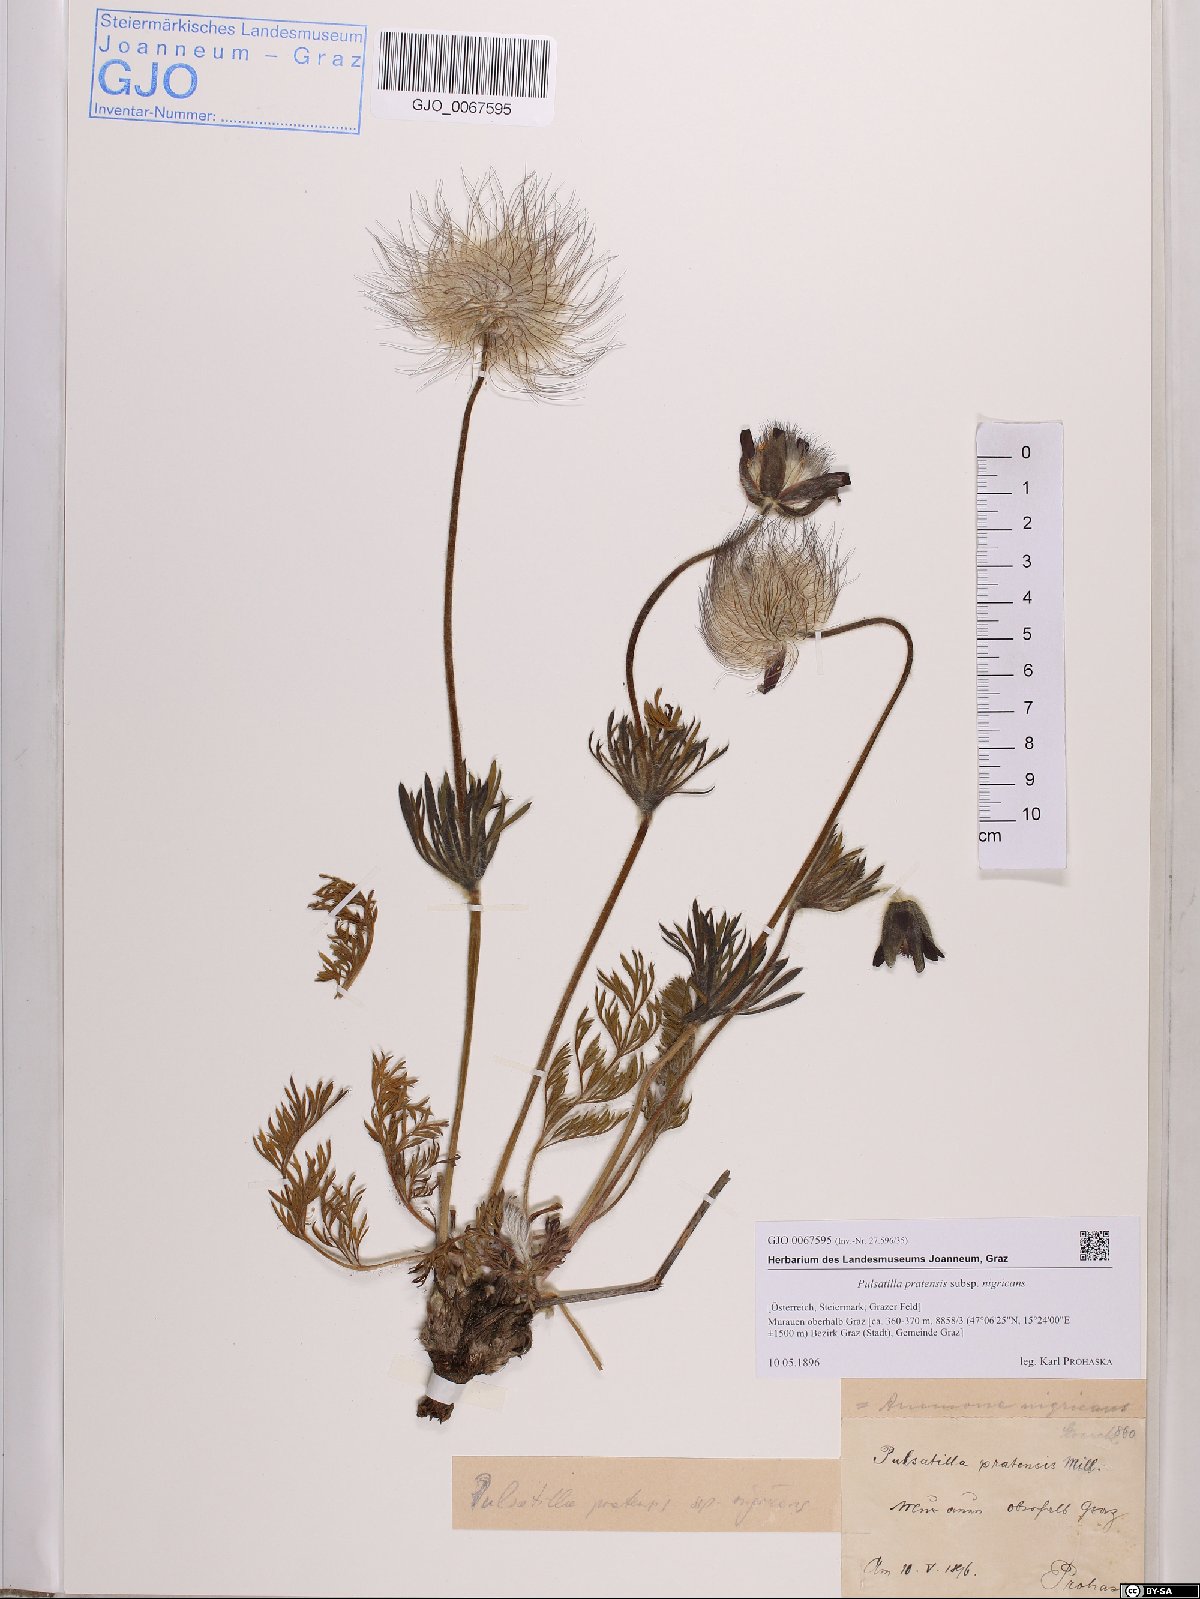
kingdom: Plantae
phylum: Tracheophyta
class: Magnoliopsida
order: Ranunculales
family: Ranunculaceae
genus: Pulsatilla
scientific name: Pulsatilla pratensis
